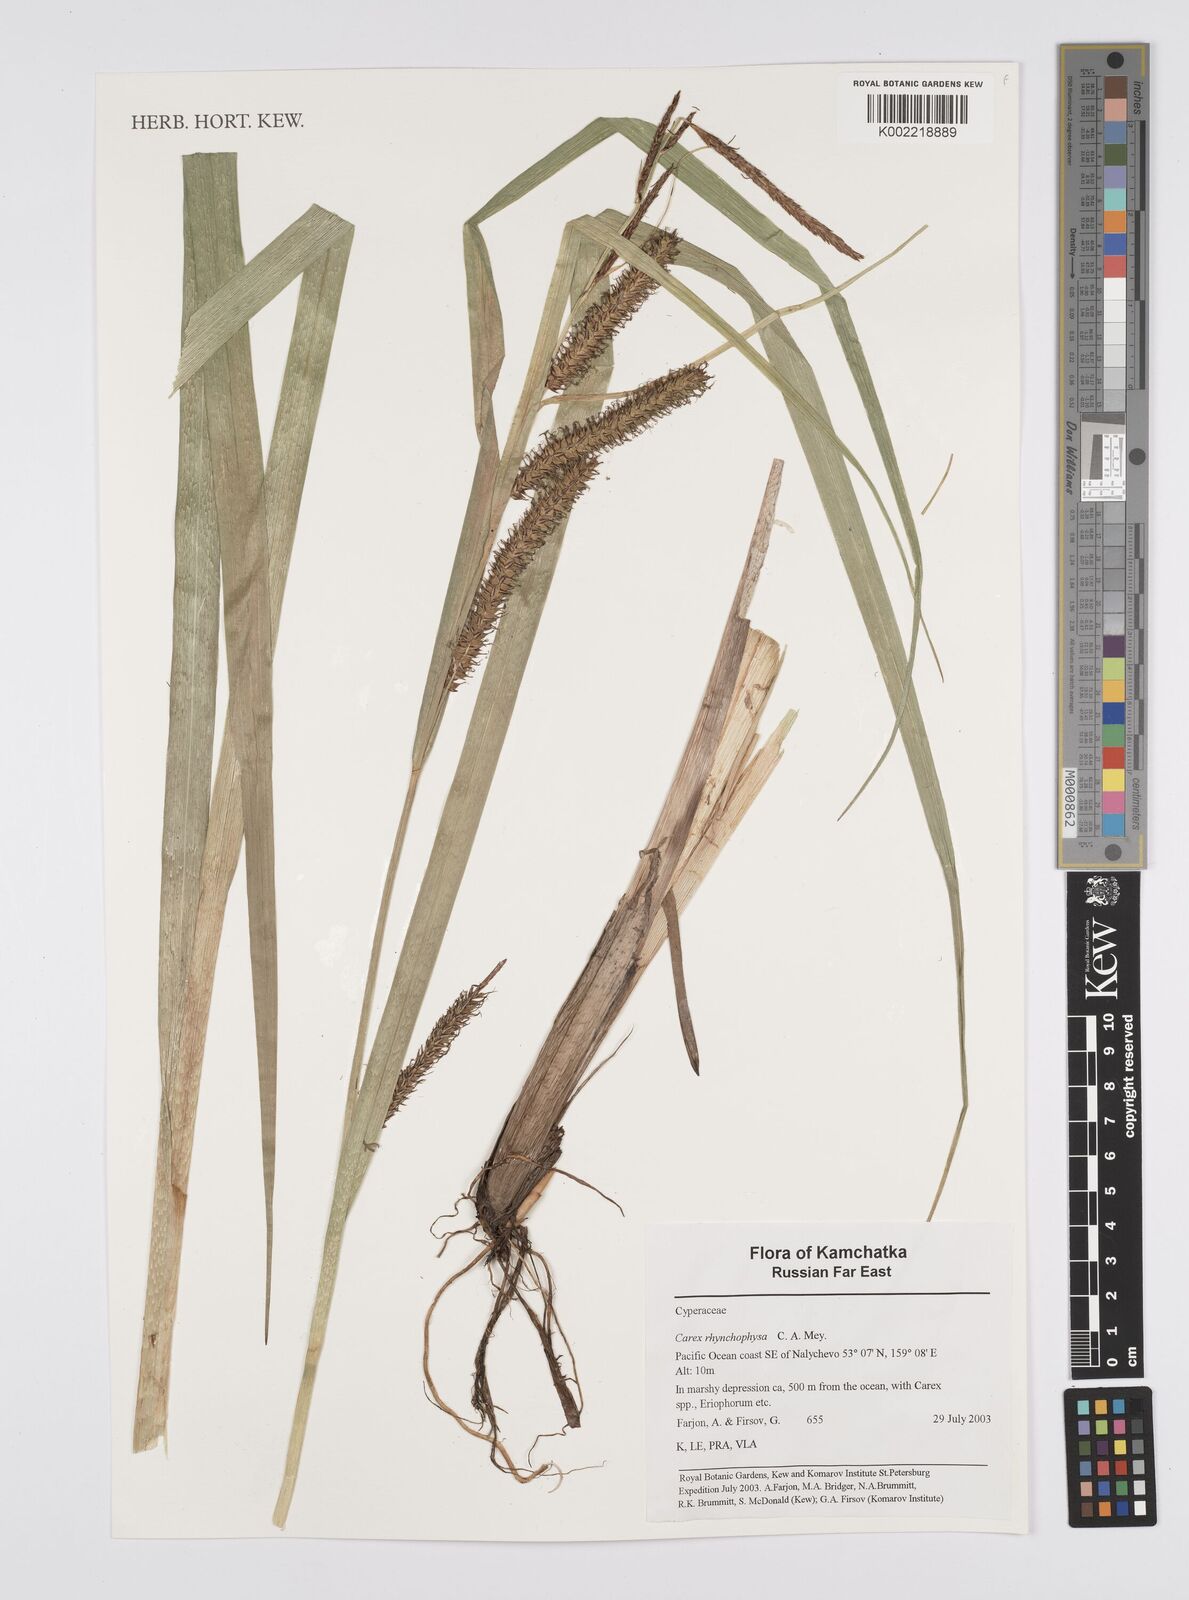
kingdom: Plantae
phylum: Tracheophyta
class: Liliopsida
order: Poales
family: Cyperaceae
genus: Carex
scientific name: Carex utriculata
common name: Beaked sedge
